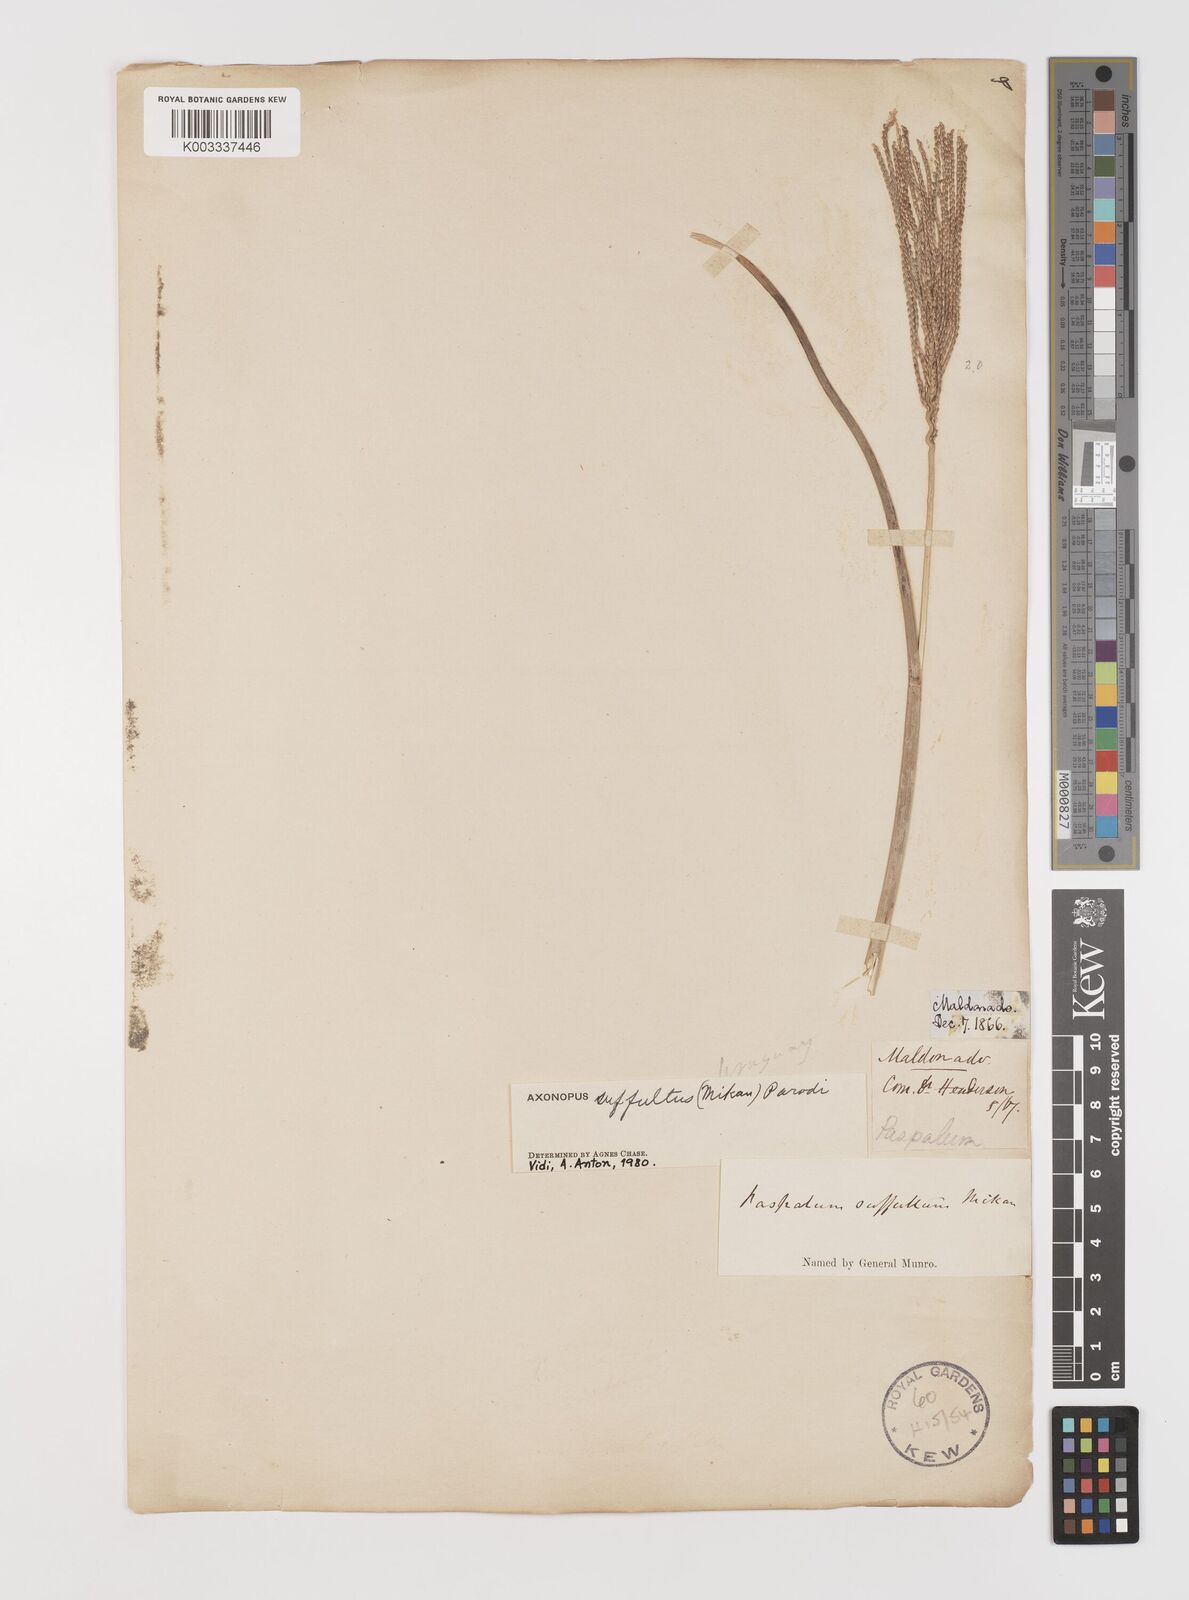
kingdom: Plantae
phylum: Tracheophyta
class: Liliopsida
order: Poales
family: Poaceae
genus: Axonopus
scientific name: Axonopus suffultus
